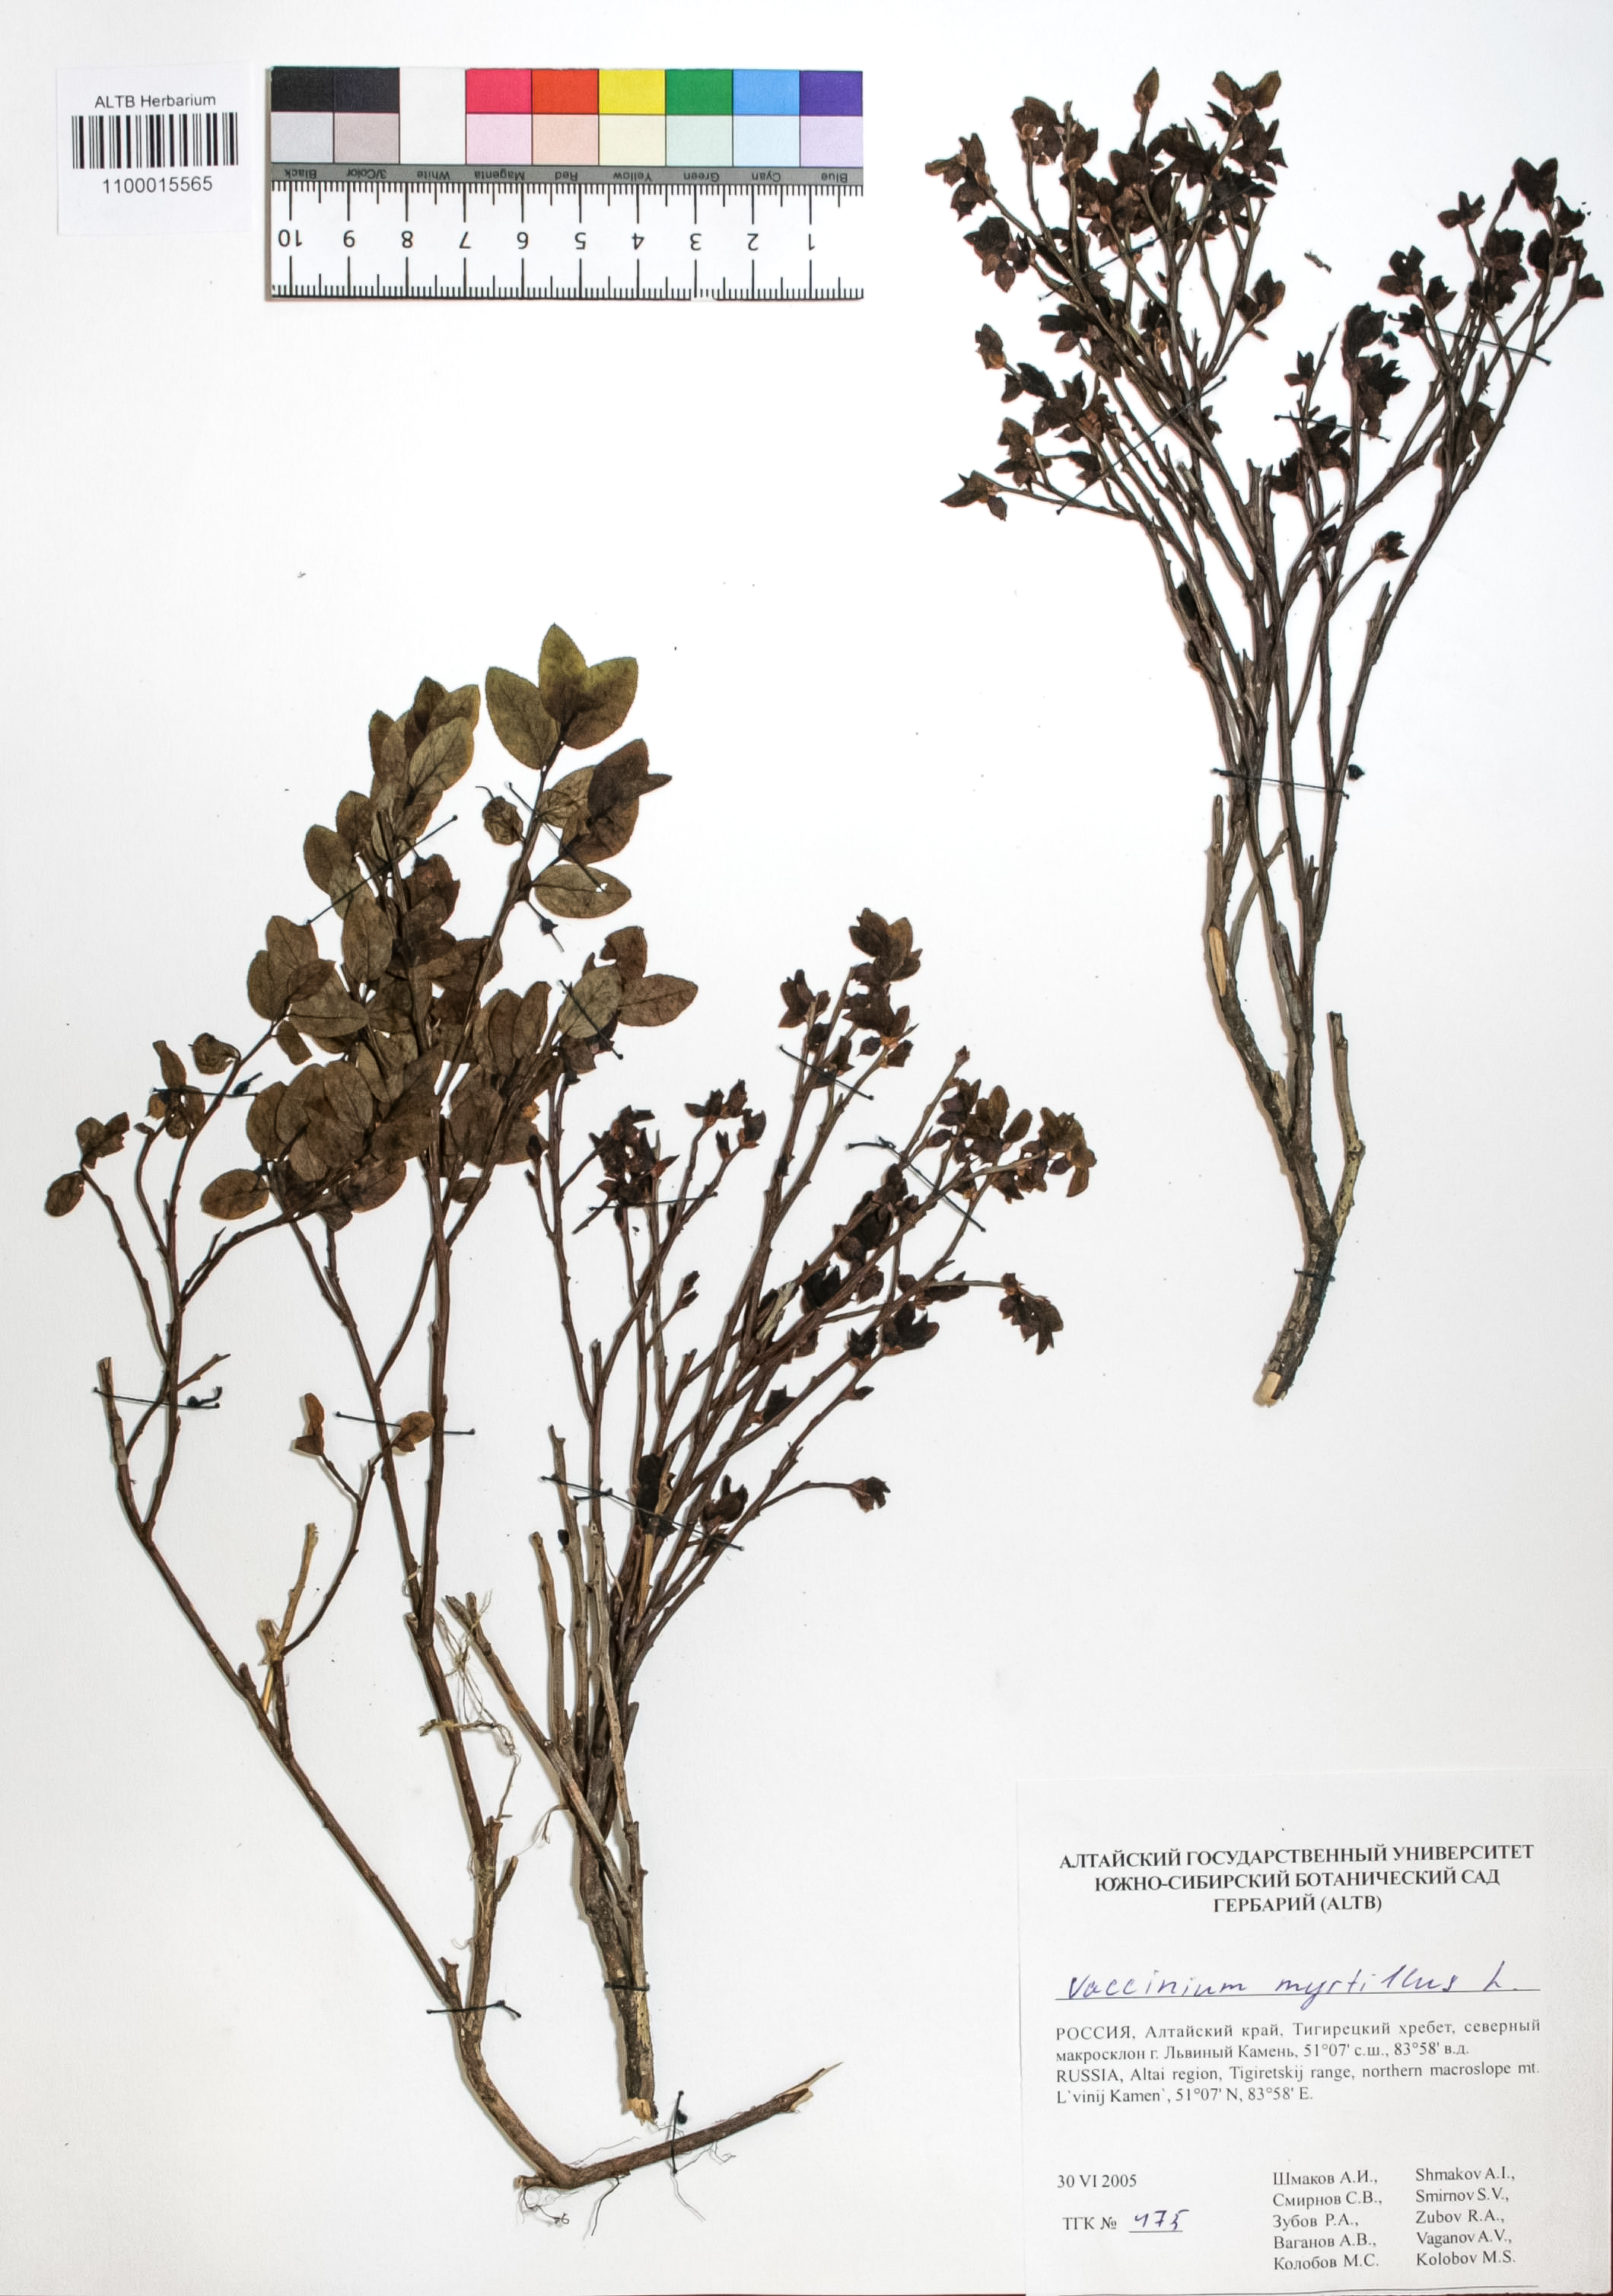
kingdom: Plantae
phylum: Tracheophyta
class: Magnoliopsida
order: Ericales
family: Ericaceae
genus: Vaccinium
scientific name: Vaccinium myrtillus
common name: Bilberry
